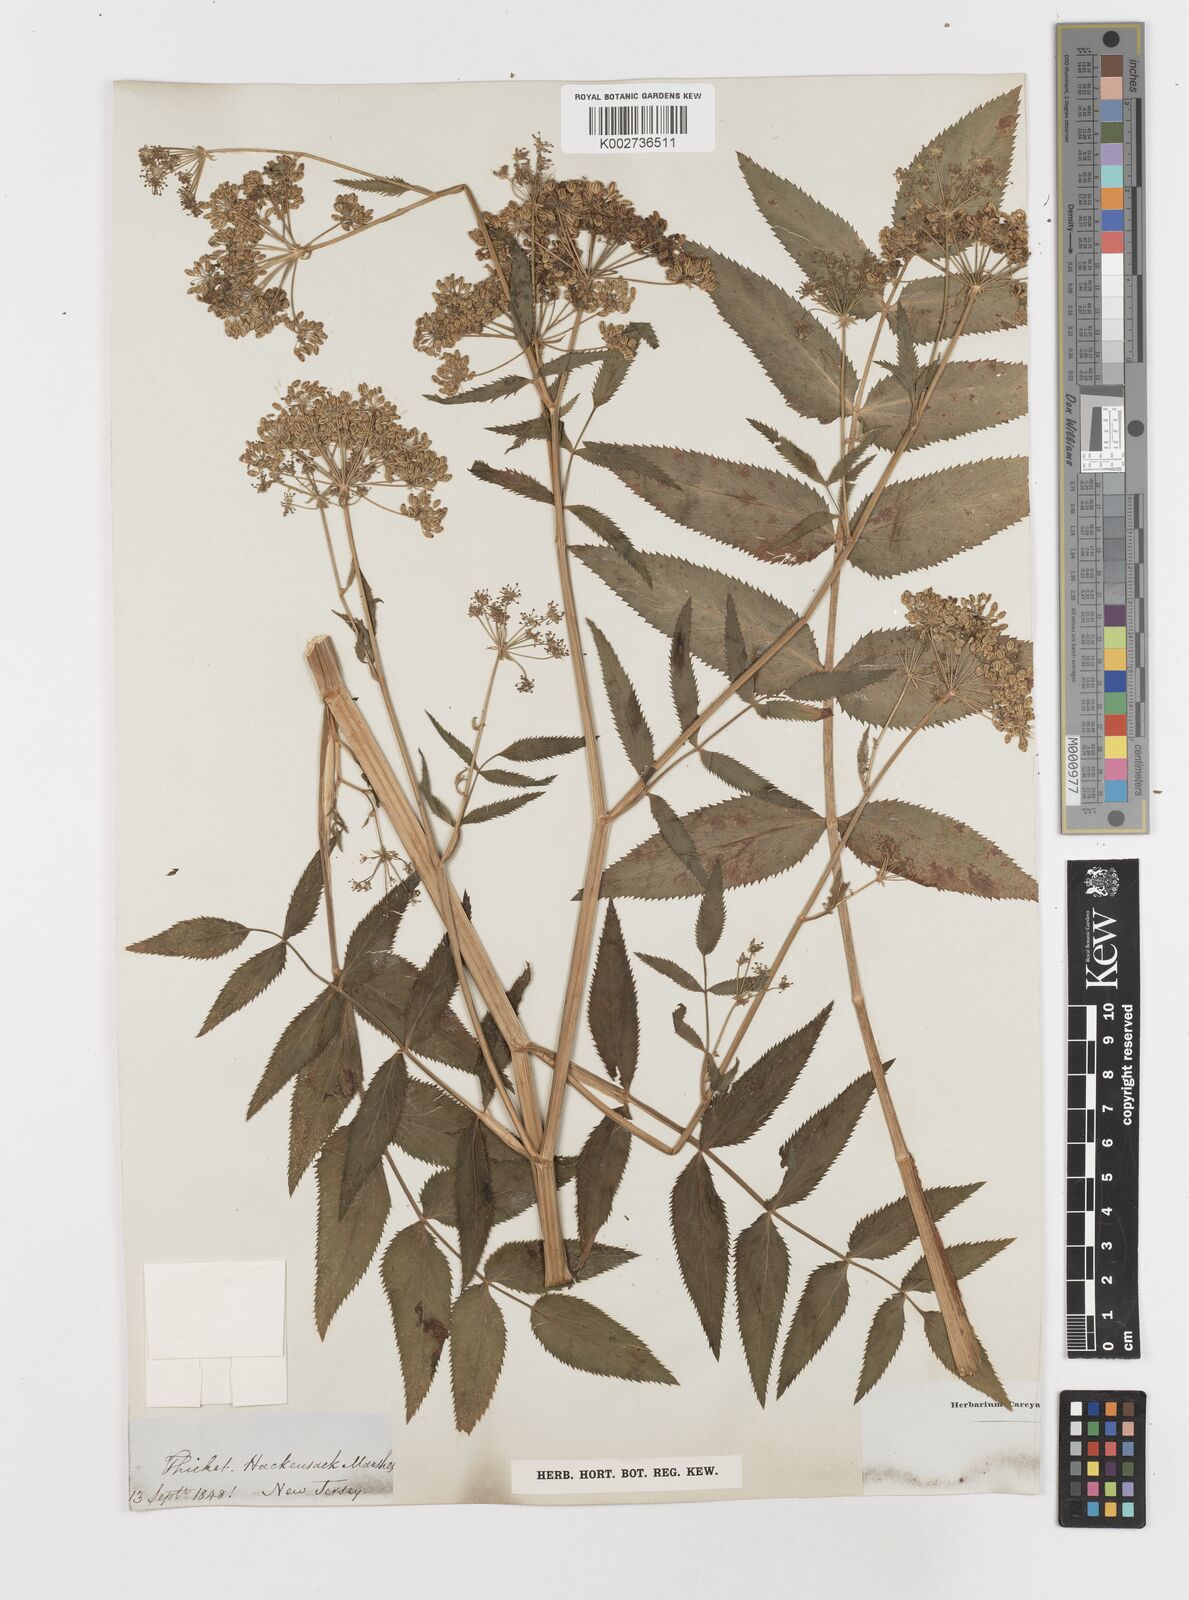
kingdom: Plantae
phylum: Tracheophyta
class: Magnoliopsida
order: Apiales
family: Apiaceae
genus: Sium
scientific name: Sium
